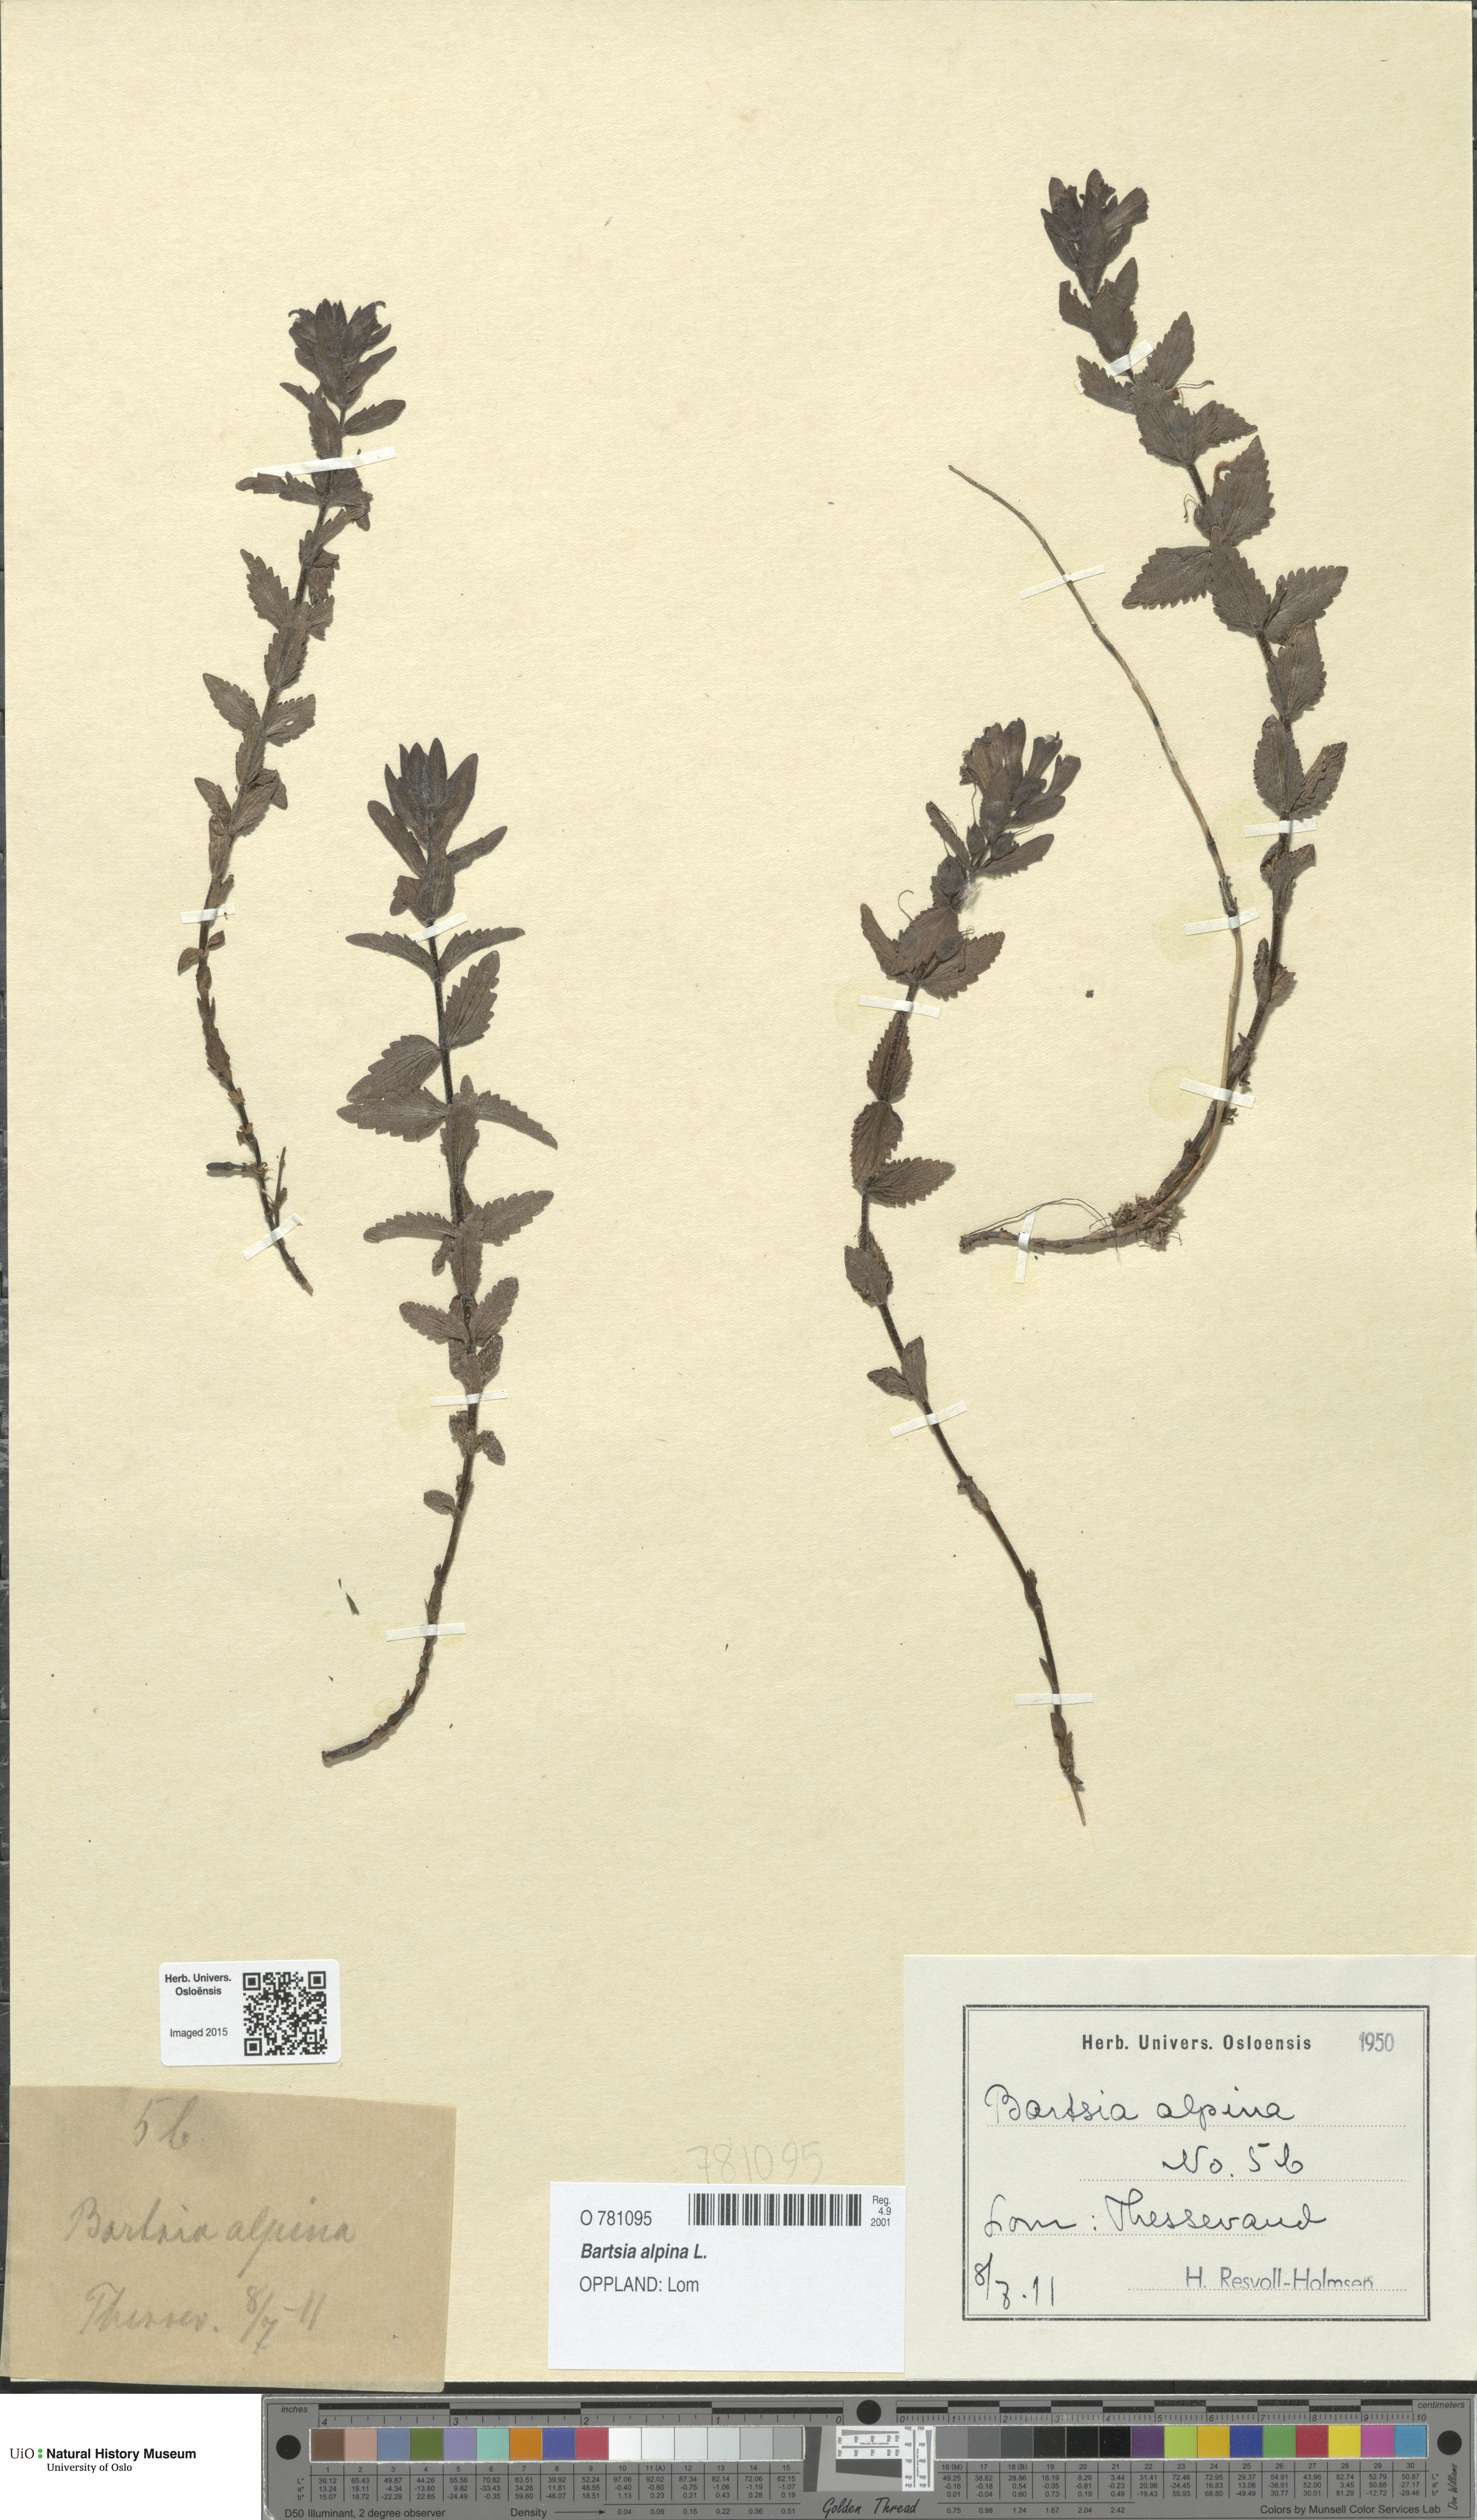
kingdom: Plantae
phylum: Tracheophyta
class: Magnoliopsida
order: Lamiales
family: Orobanchaceae
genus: Bartsia
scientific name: Bartsia alpina
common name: Alpine bartsia
